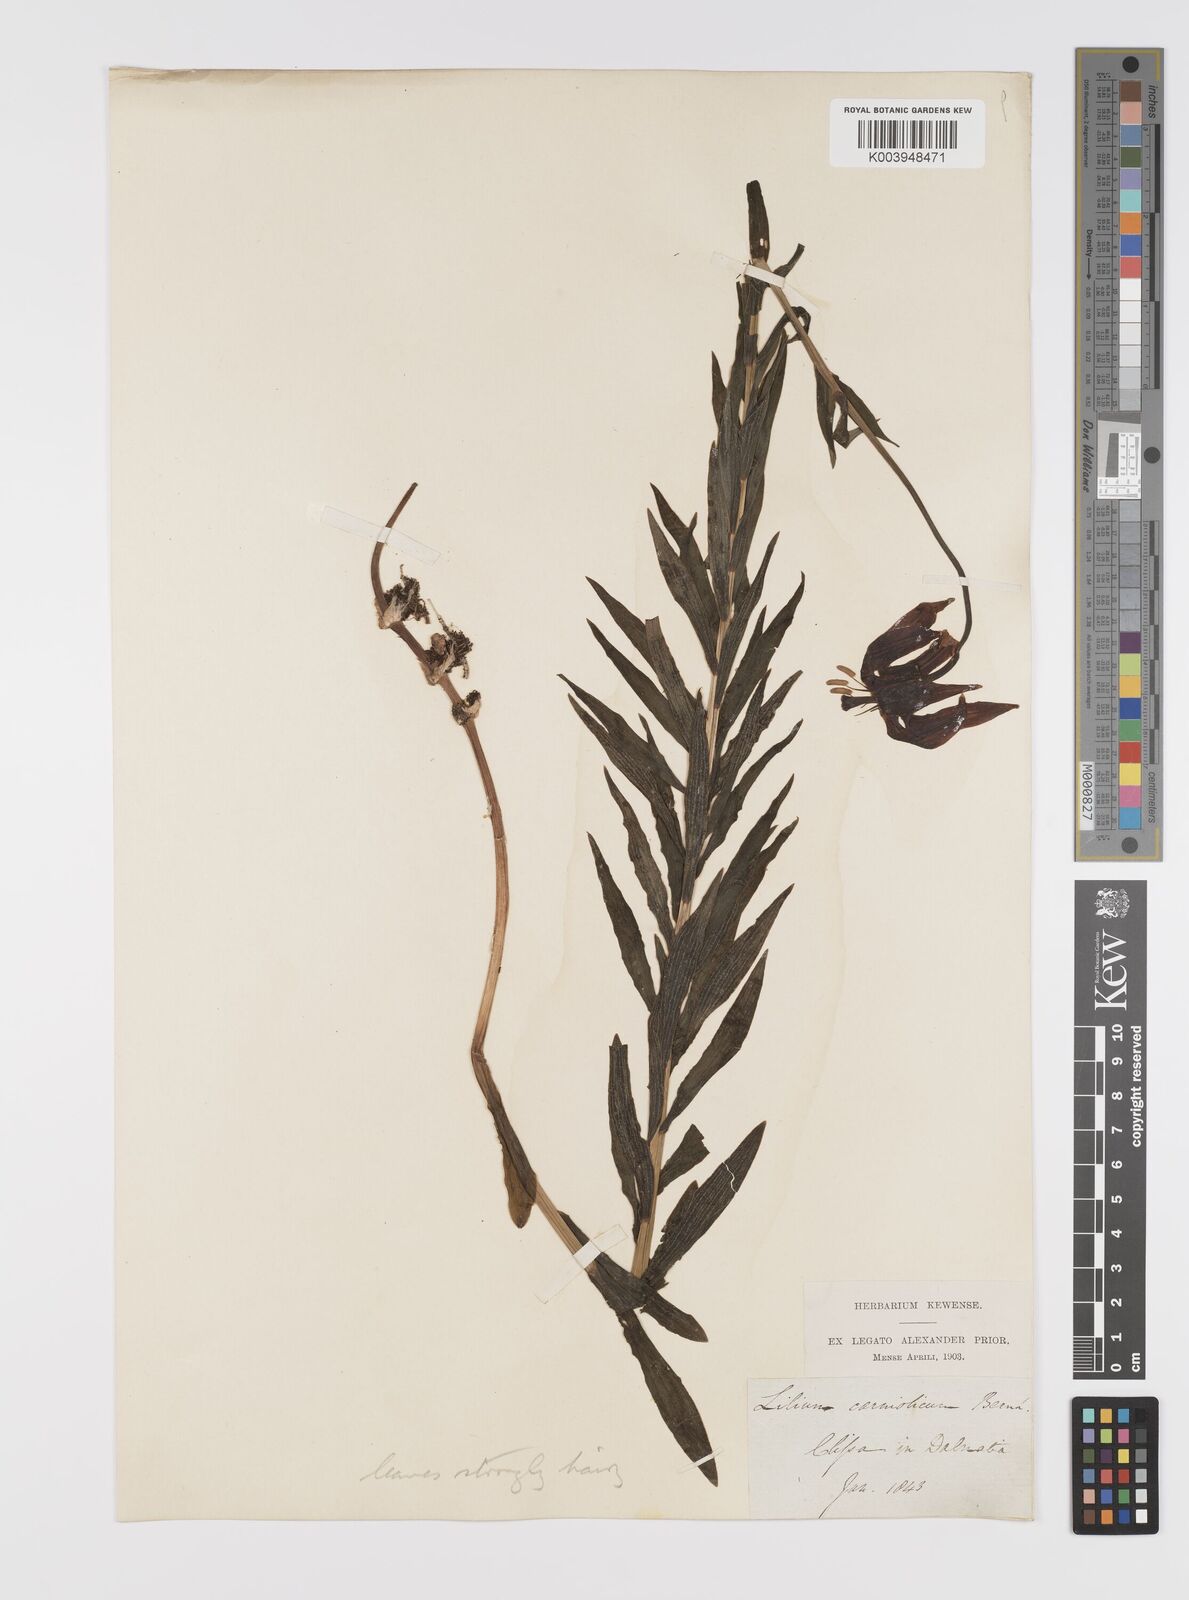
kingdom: Plantae
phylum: Tracheophyta
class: Liliopsida
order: Liliales
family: Liliaceae
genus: Lilium
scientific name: Lilium
